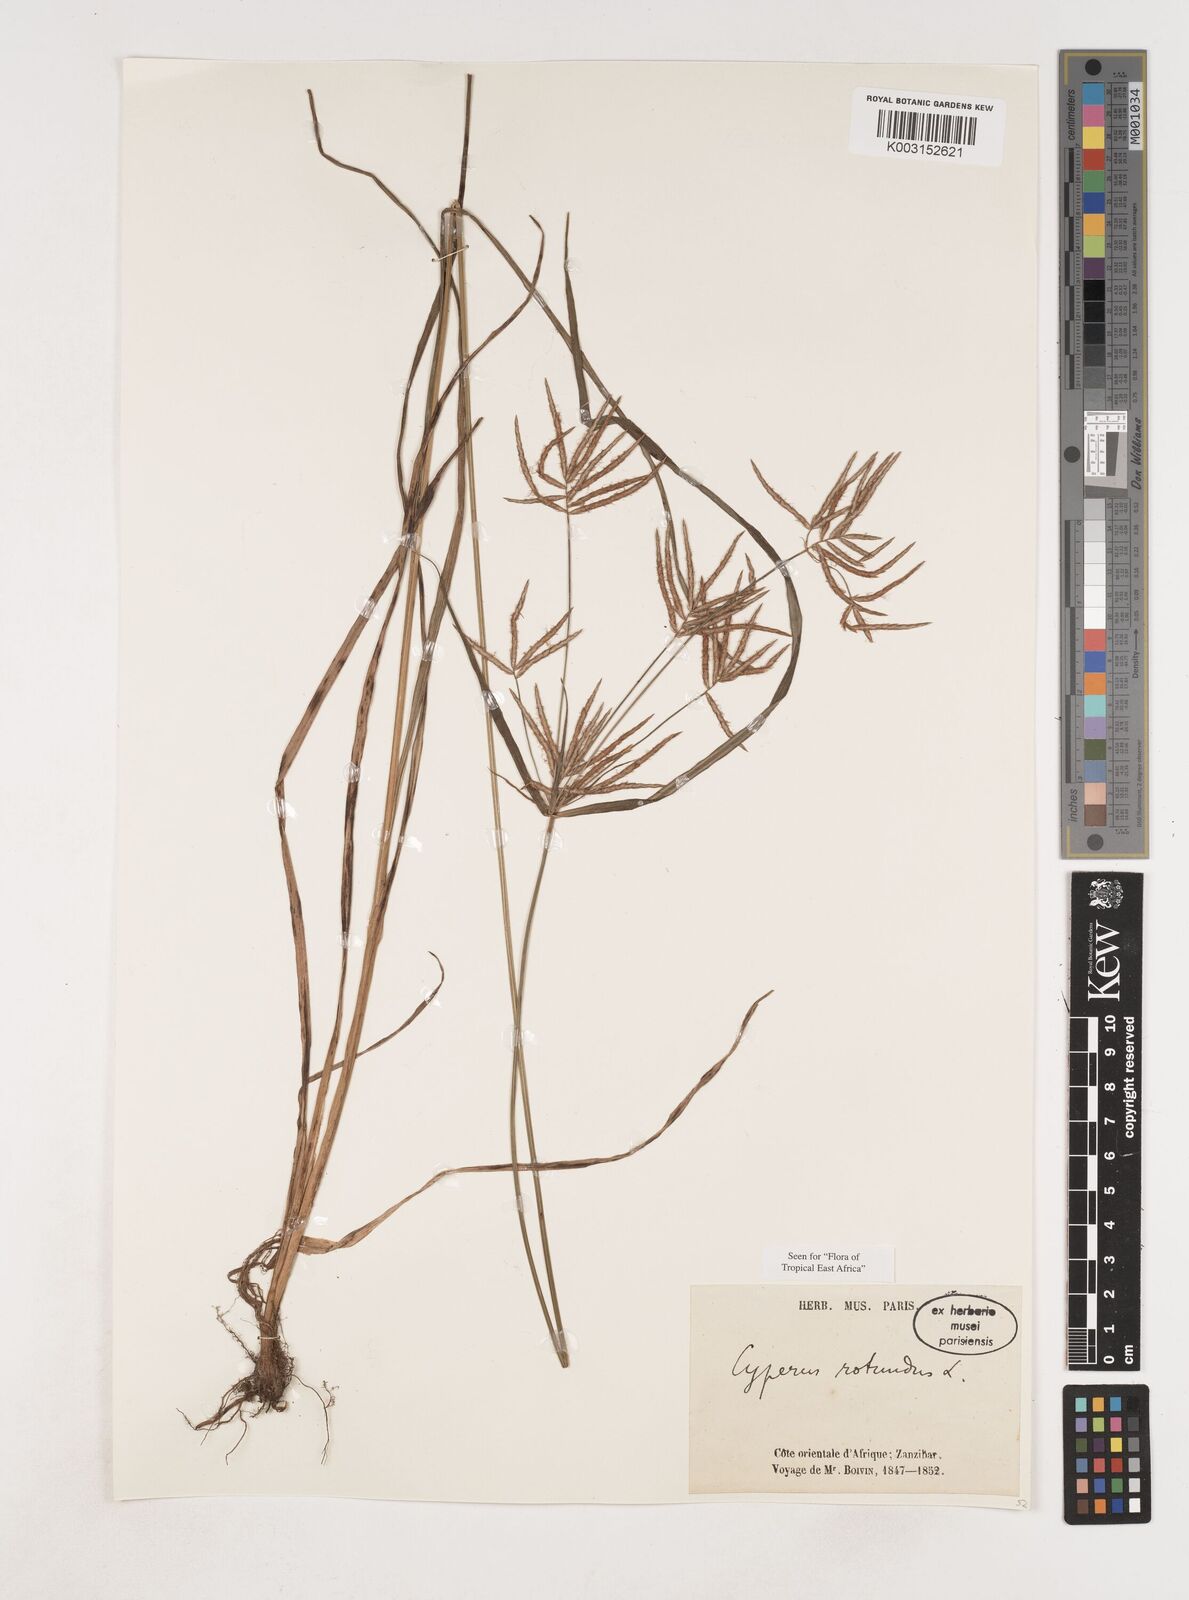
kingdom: Plantae
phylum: Tracheophyta
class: Liliopsida
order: Poales
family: Cyperaceae
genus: Cyperus
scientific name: Cyperus rotundus
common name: Nutgrass
